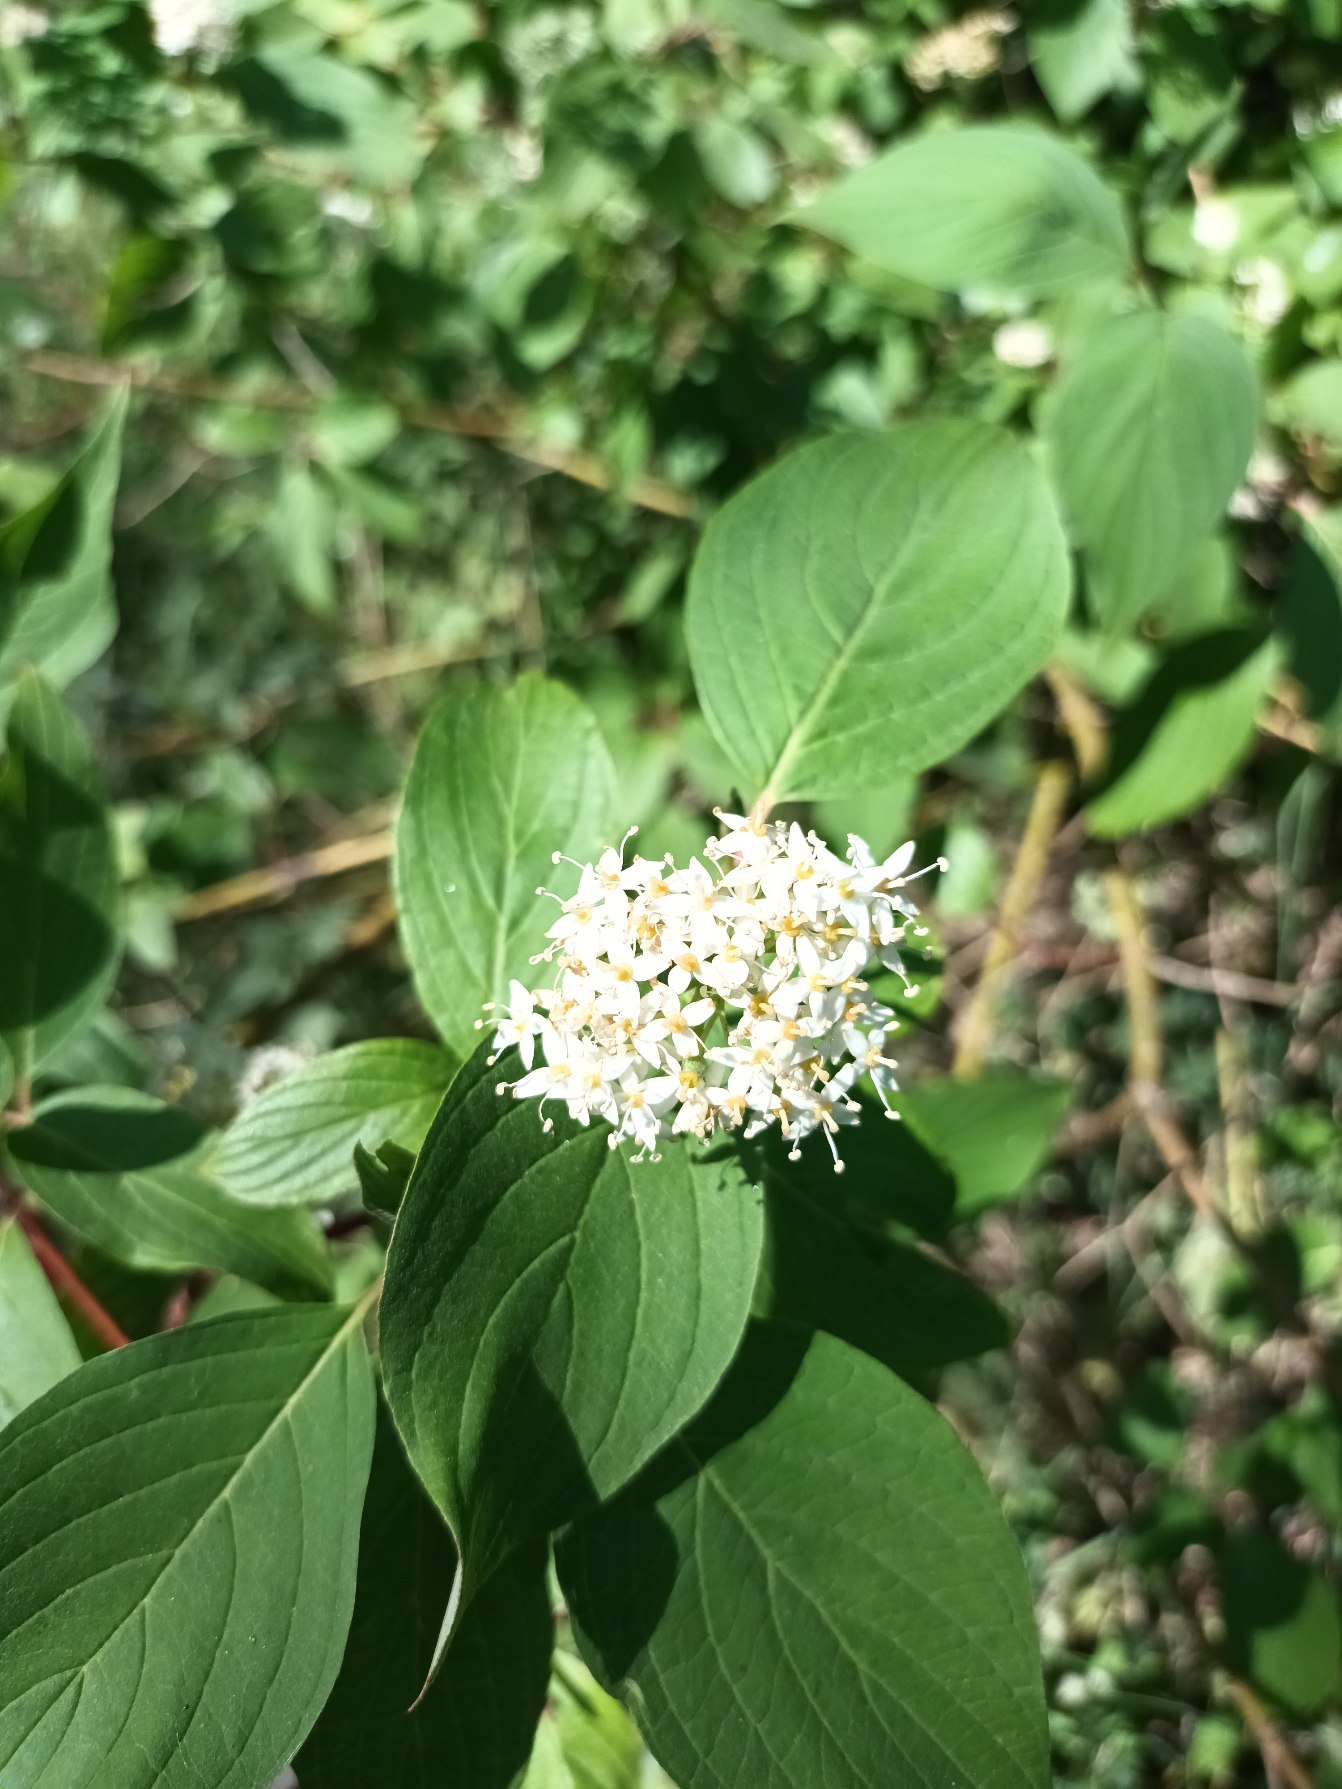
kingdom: Plantae
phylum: Tracheophyta
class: Magnoliopsida
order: Cornales
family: Cornaceae
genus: Cornus
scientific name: Cornus sericea
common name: Krybende kornel
